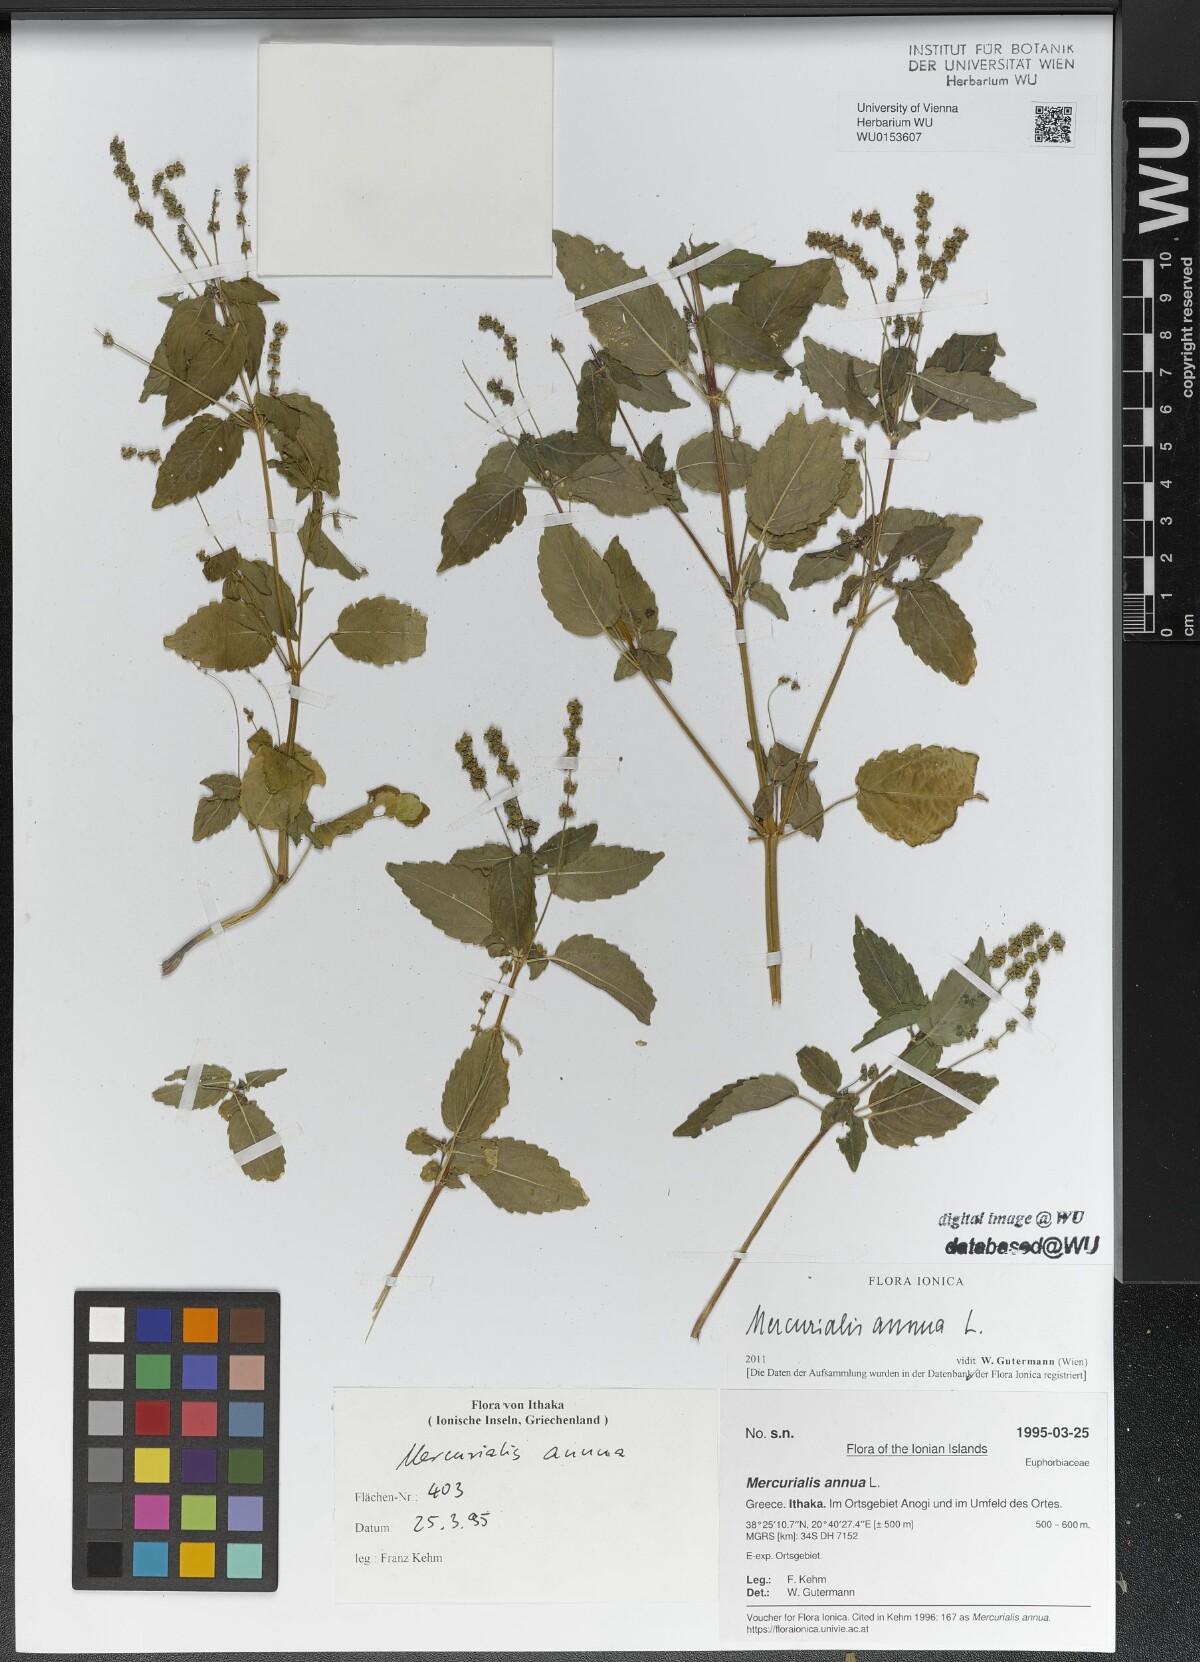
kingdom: Plantae
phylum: Tracheophyta
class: Magnoliopsida
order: Malpighiales
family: Euphorbiaceae
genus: Mercurialis
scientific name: Mercurialis annua
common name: Annual mercury
